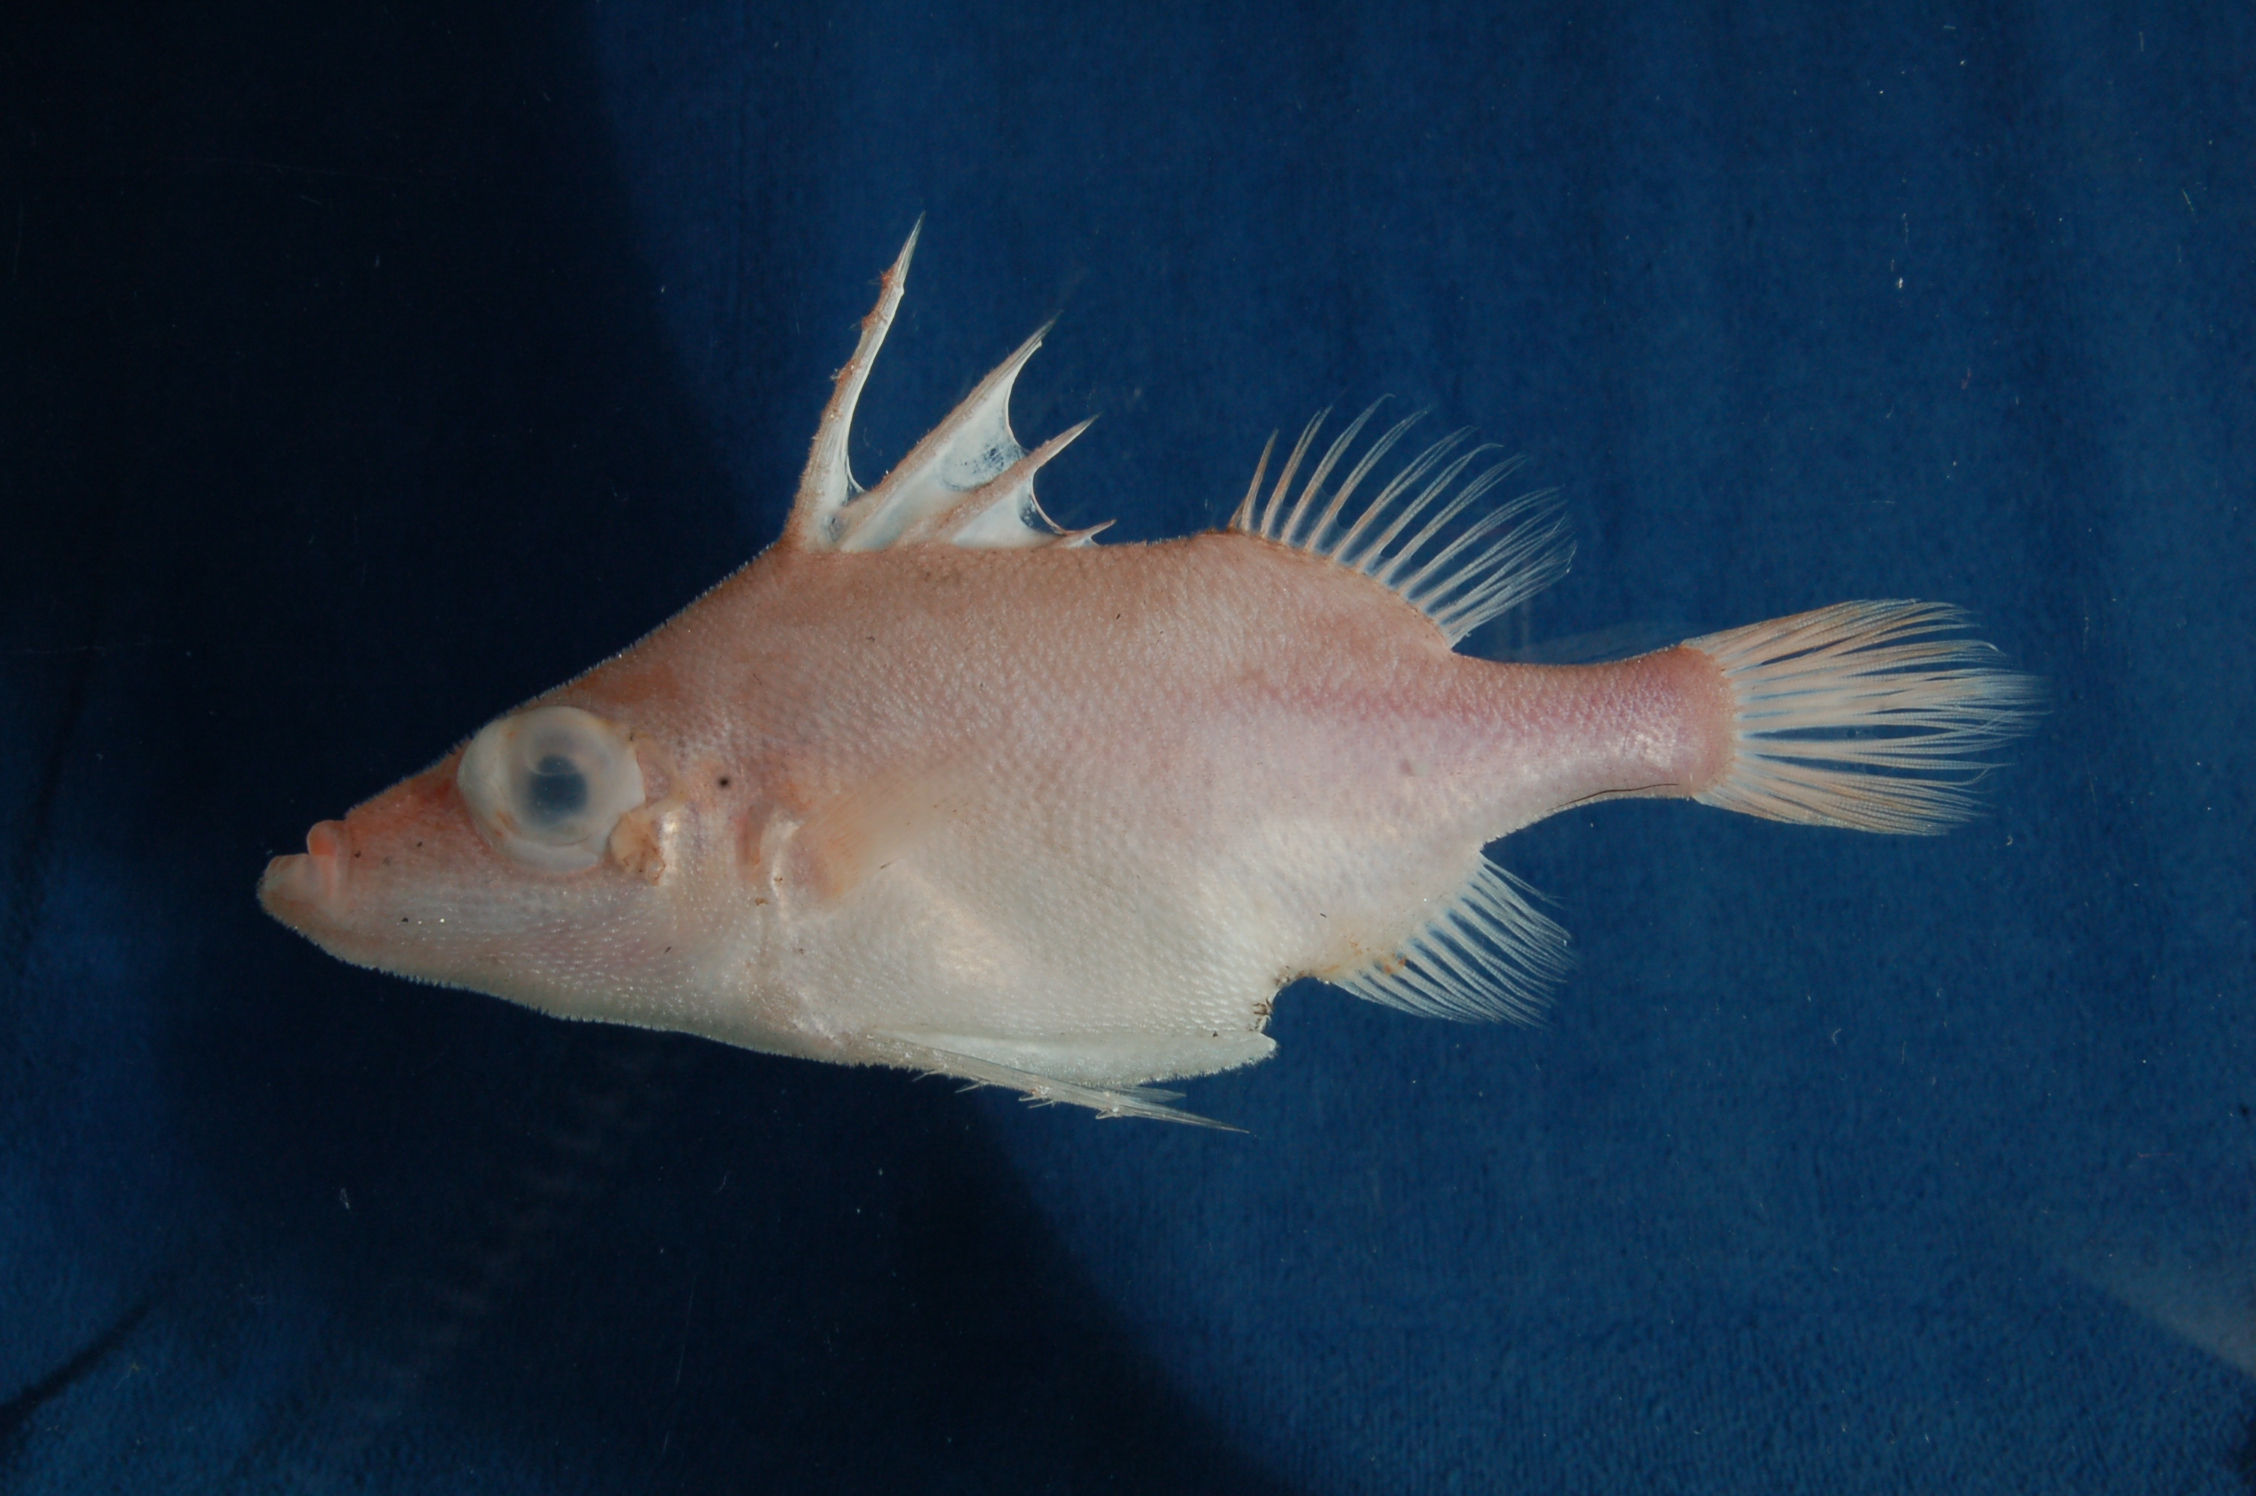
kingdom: Animalia
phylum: Chordata
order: Tetraodontiformes
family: Triacanthodidae
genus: Tydemania
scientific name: Tydemania navigatoris
